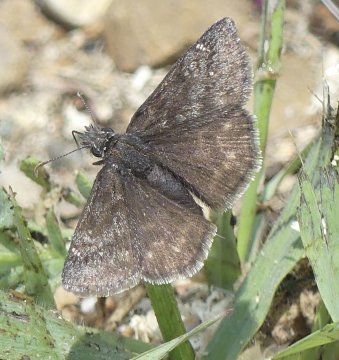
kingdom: Animalia
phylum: Arthropoda
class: Insecta
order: Lepidoptera
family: Hesperiidae
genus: Erynnis
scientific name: Erynnis
